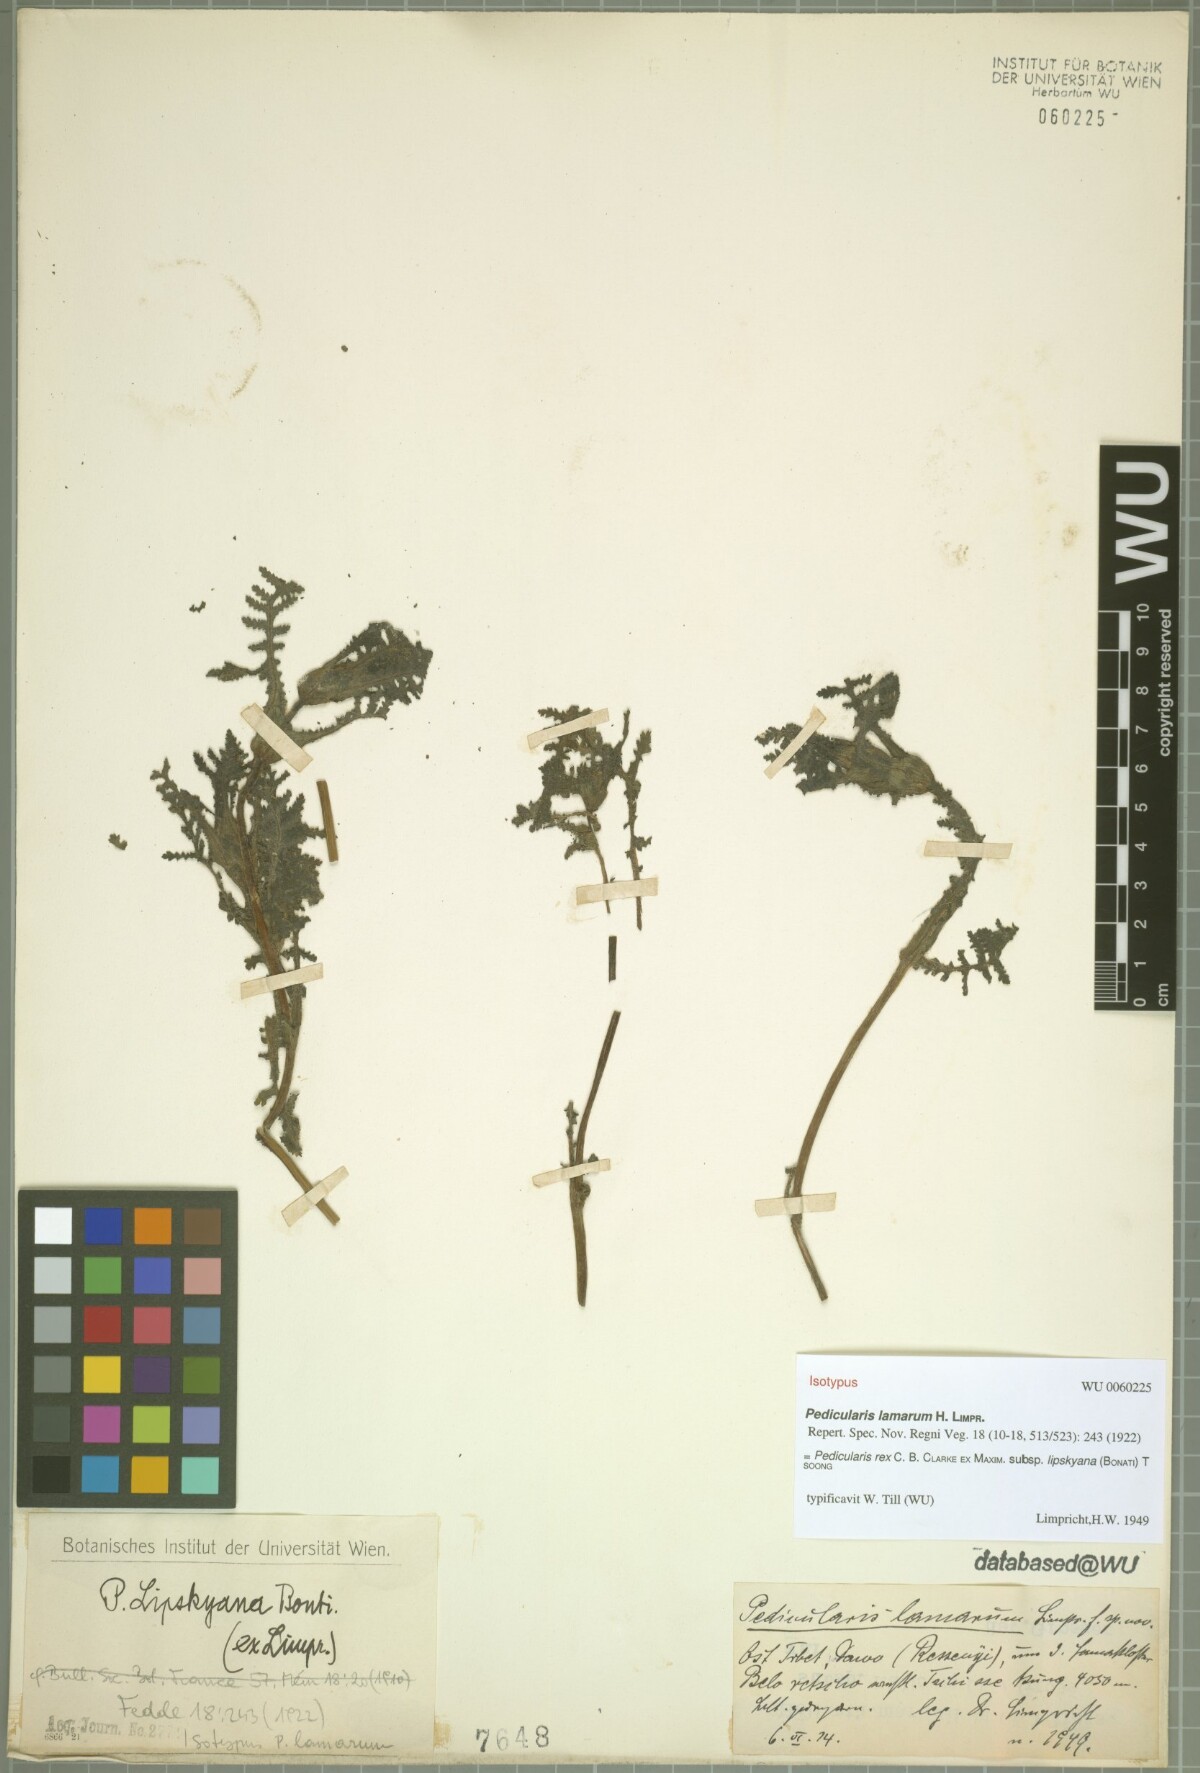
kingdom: Plantae
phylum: Tracheophyta
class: Magnoliopsida
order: Lamiales
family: Orobanchaceae
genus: Pedicularis
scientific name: Pedicularis rex
